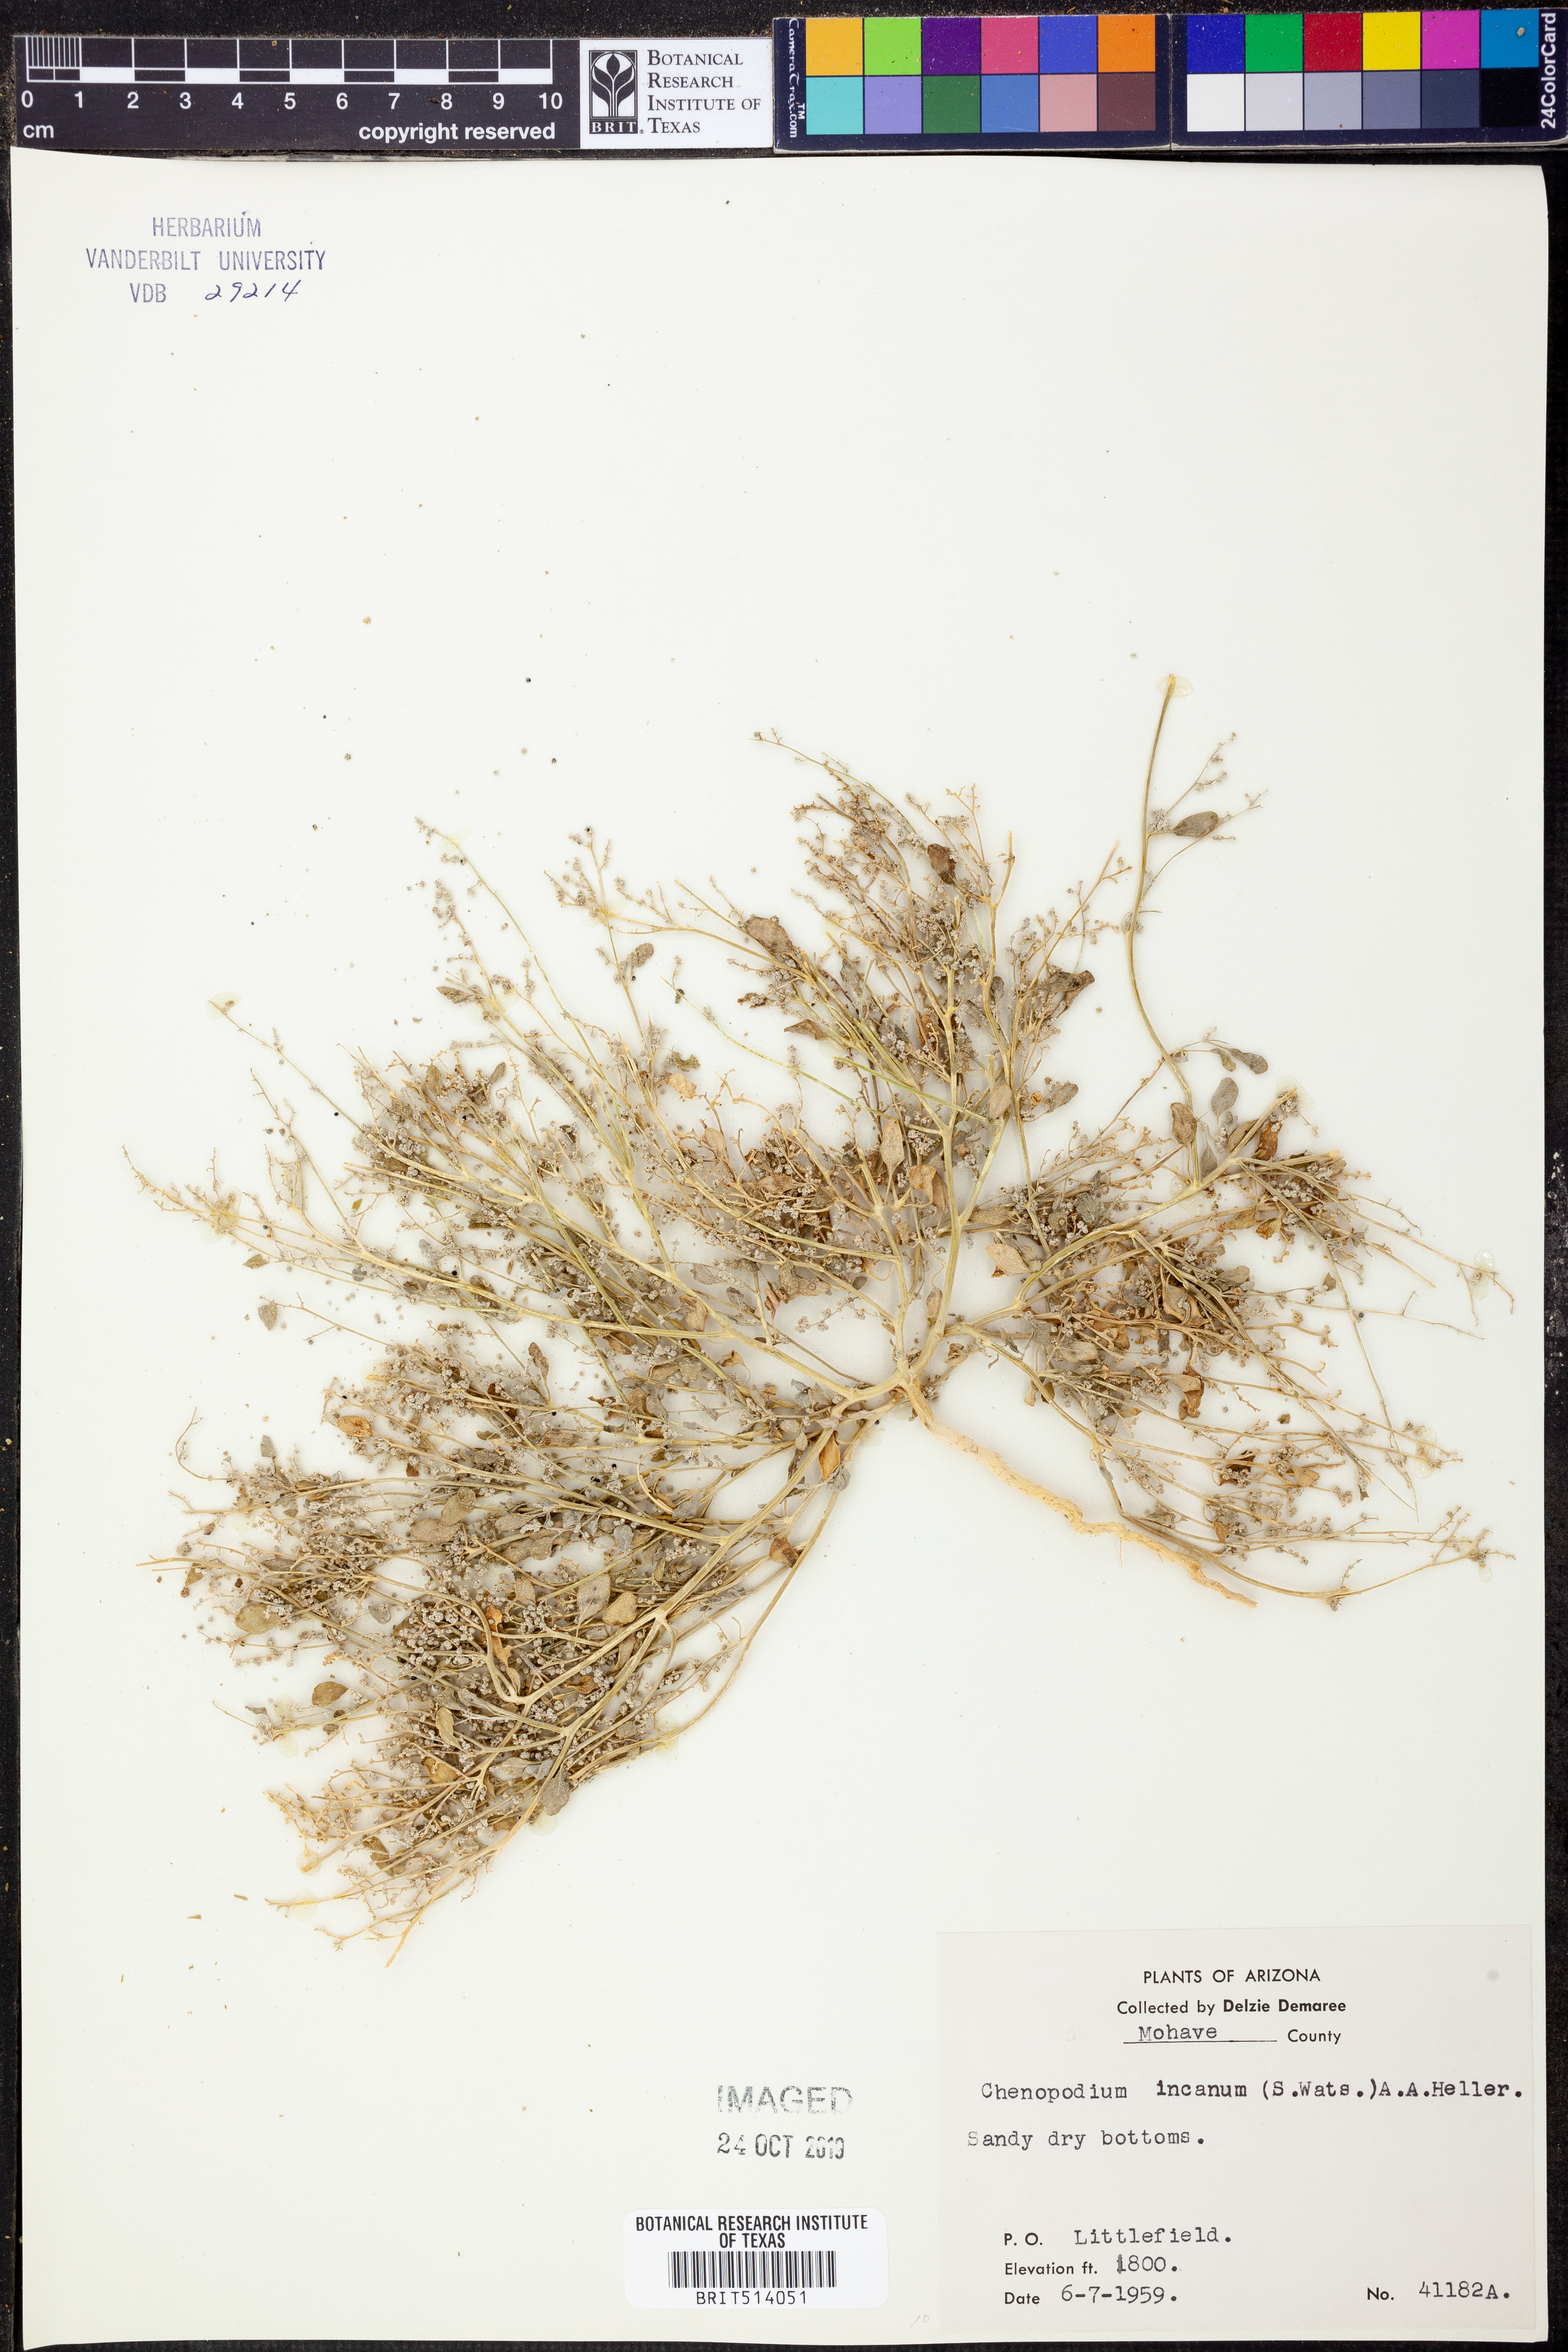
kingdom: Plantae
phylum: Tracheophyta
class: Magnoliopsida
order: Caryophyllales
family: Amaranthaceae
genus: Chenopodium
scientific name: Chenopodium incanum
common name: Hoary goosefoot
